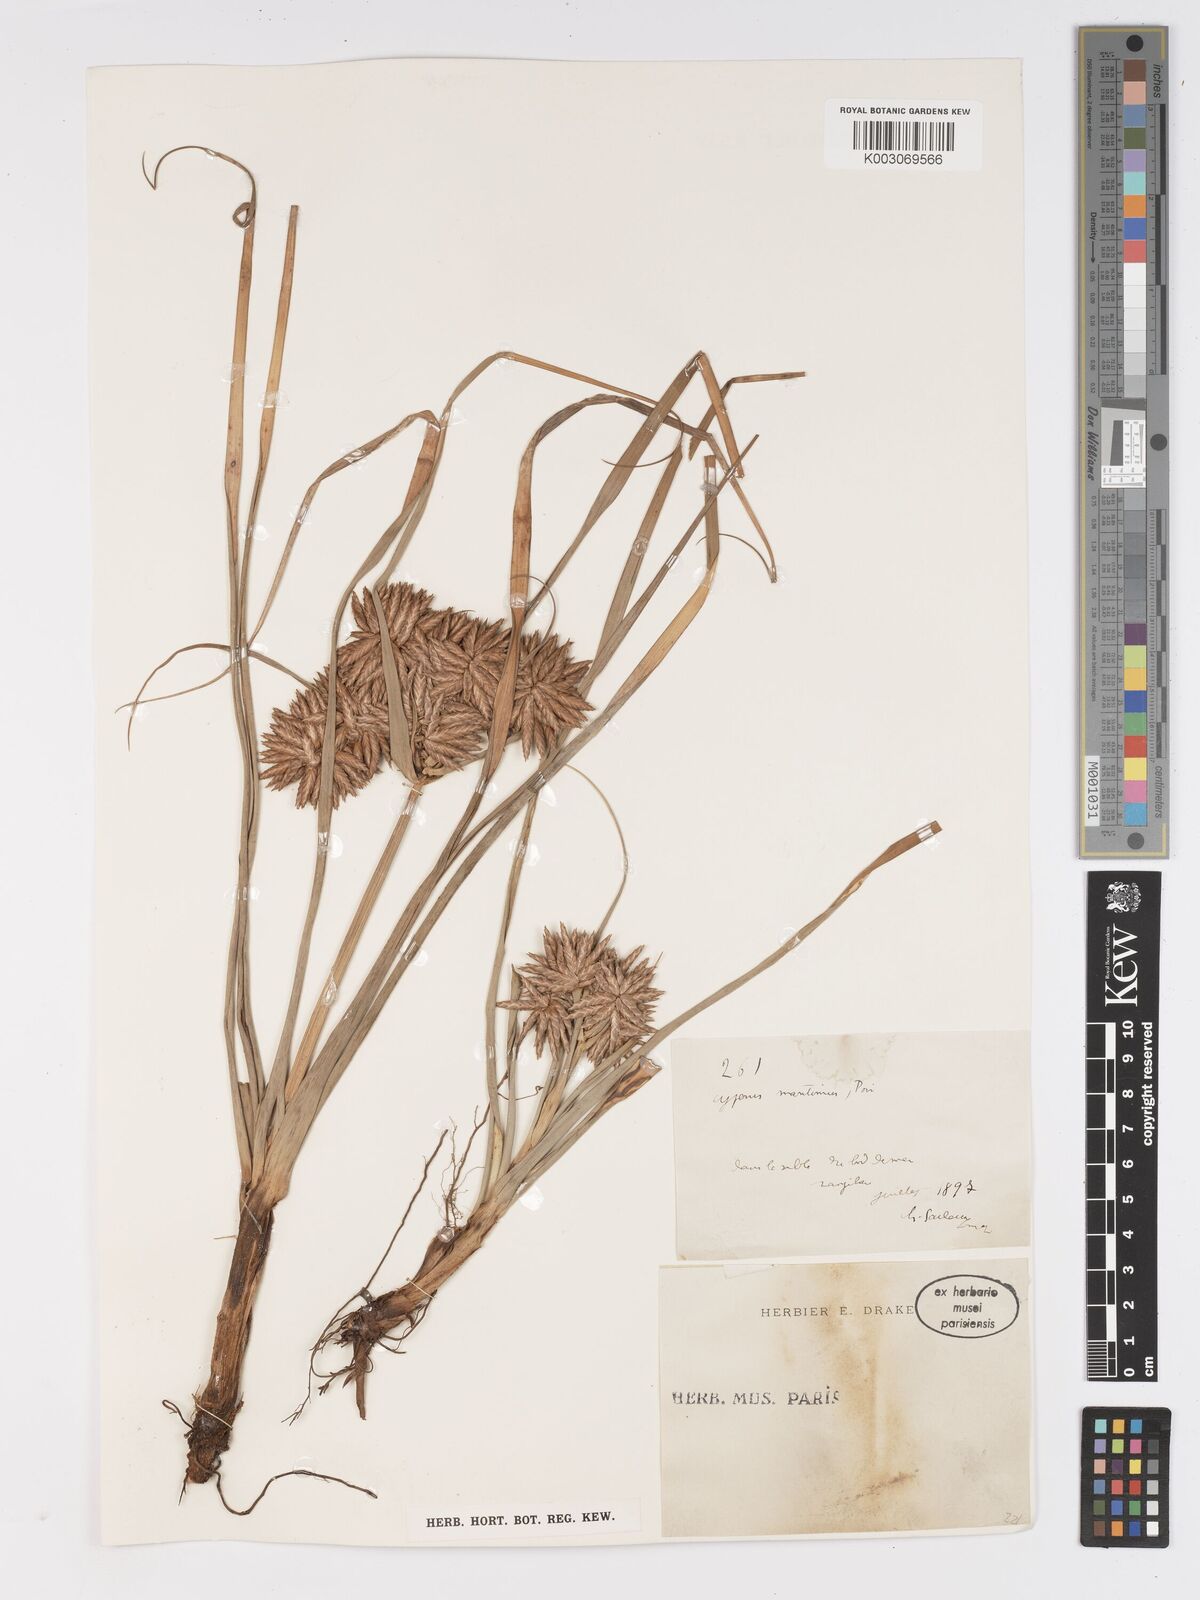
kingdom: Plantae
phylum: Tracheophyta
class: Liliopsida
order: Poales
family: Cyperaceae
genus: Cyperus
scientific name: Cyperus crassipes
